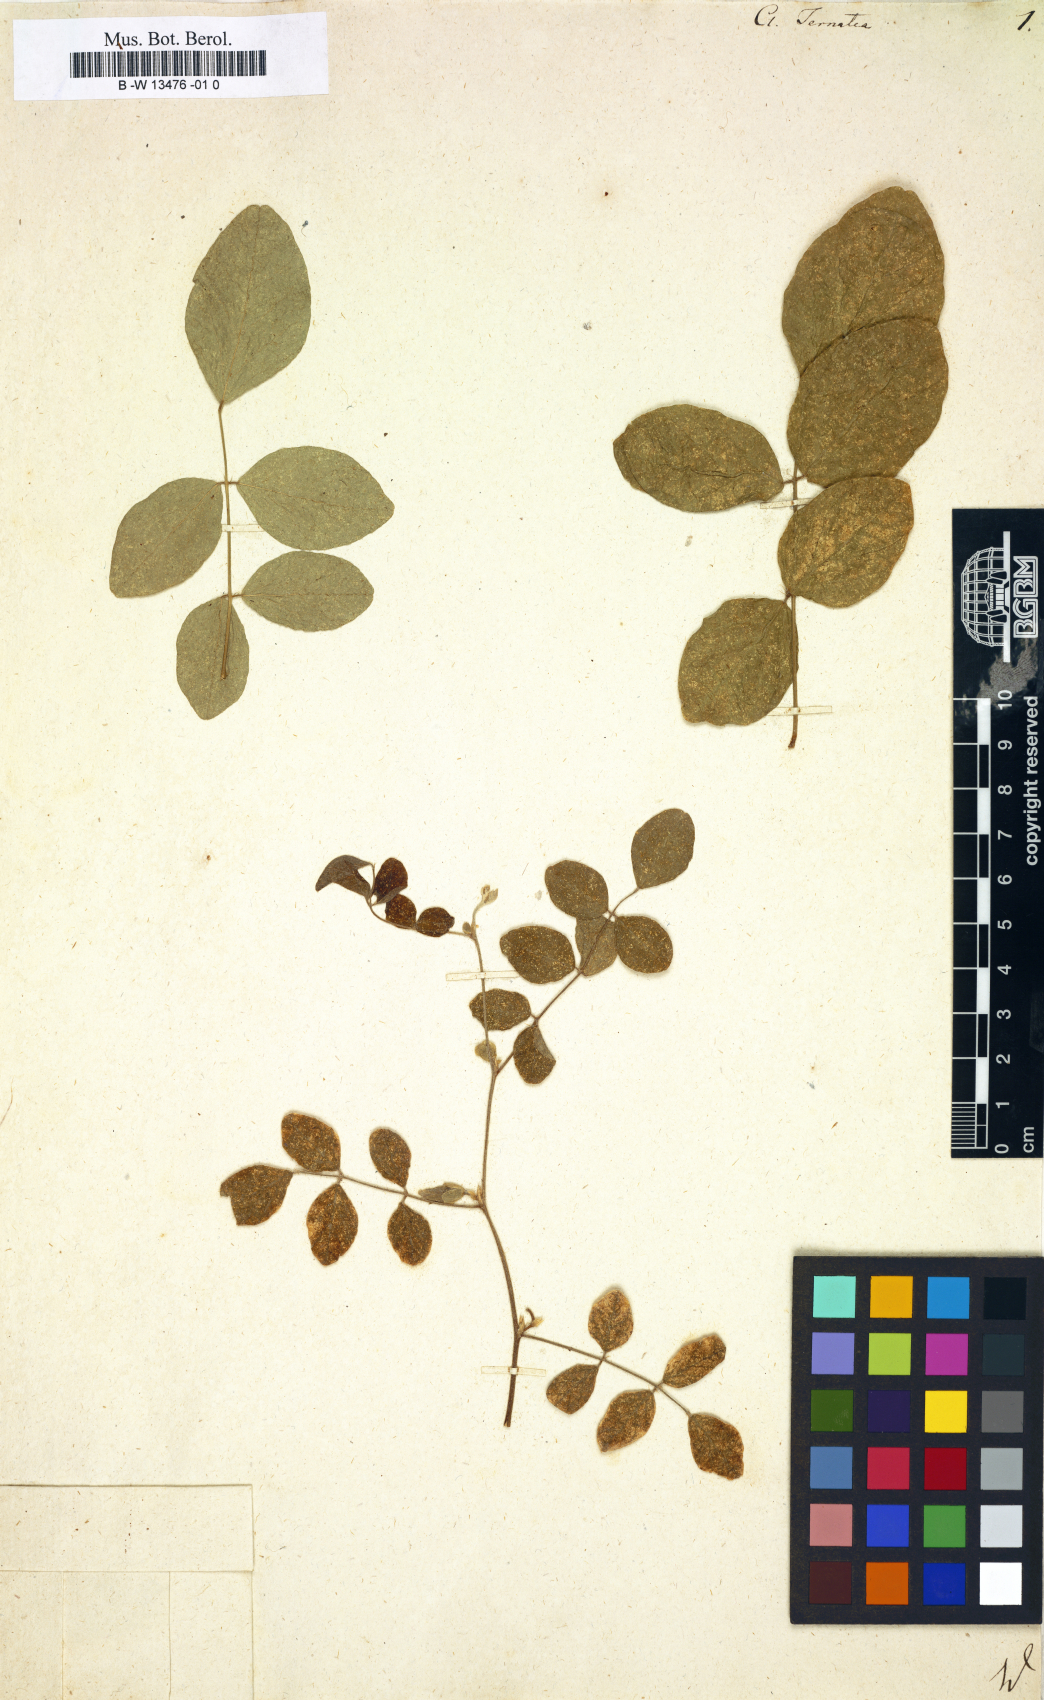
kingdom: Plantae
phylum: Tracheophyta
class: Magnoliopsida
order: Fabales
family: Fabaceae
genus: Clitoria
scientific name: Clitoria ternatea
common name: Asian pigeonwings
